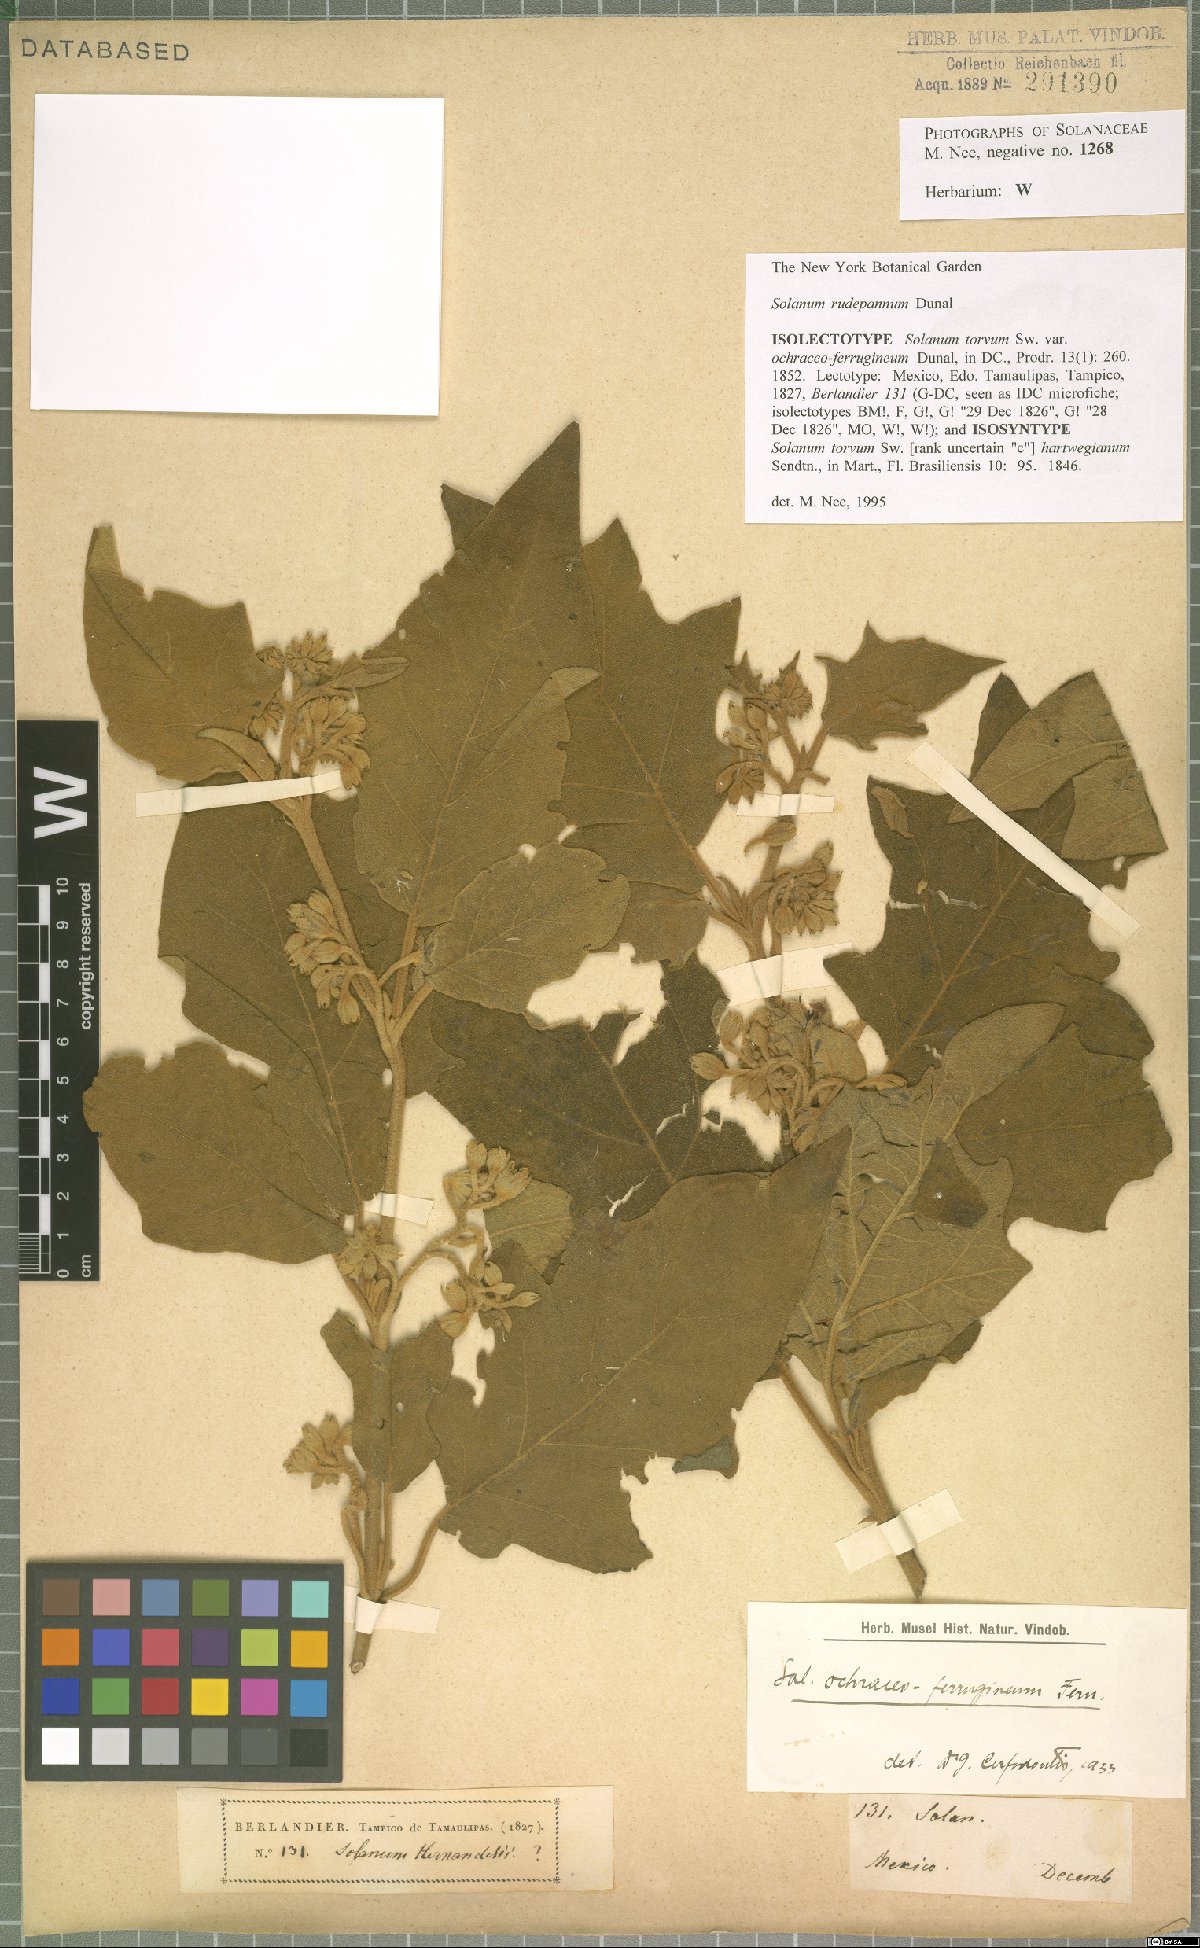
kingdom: Plantae
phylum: Tracheophyta
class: Magnoliopsida
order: Solanales
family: Solanaceae
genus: Solanum
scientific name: Solanum rude-pannum
